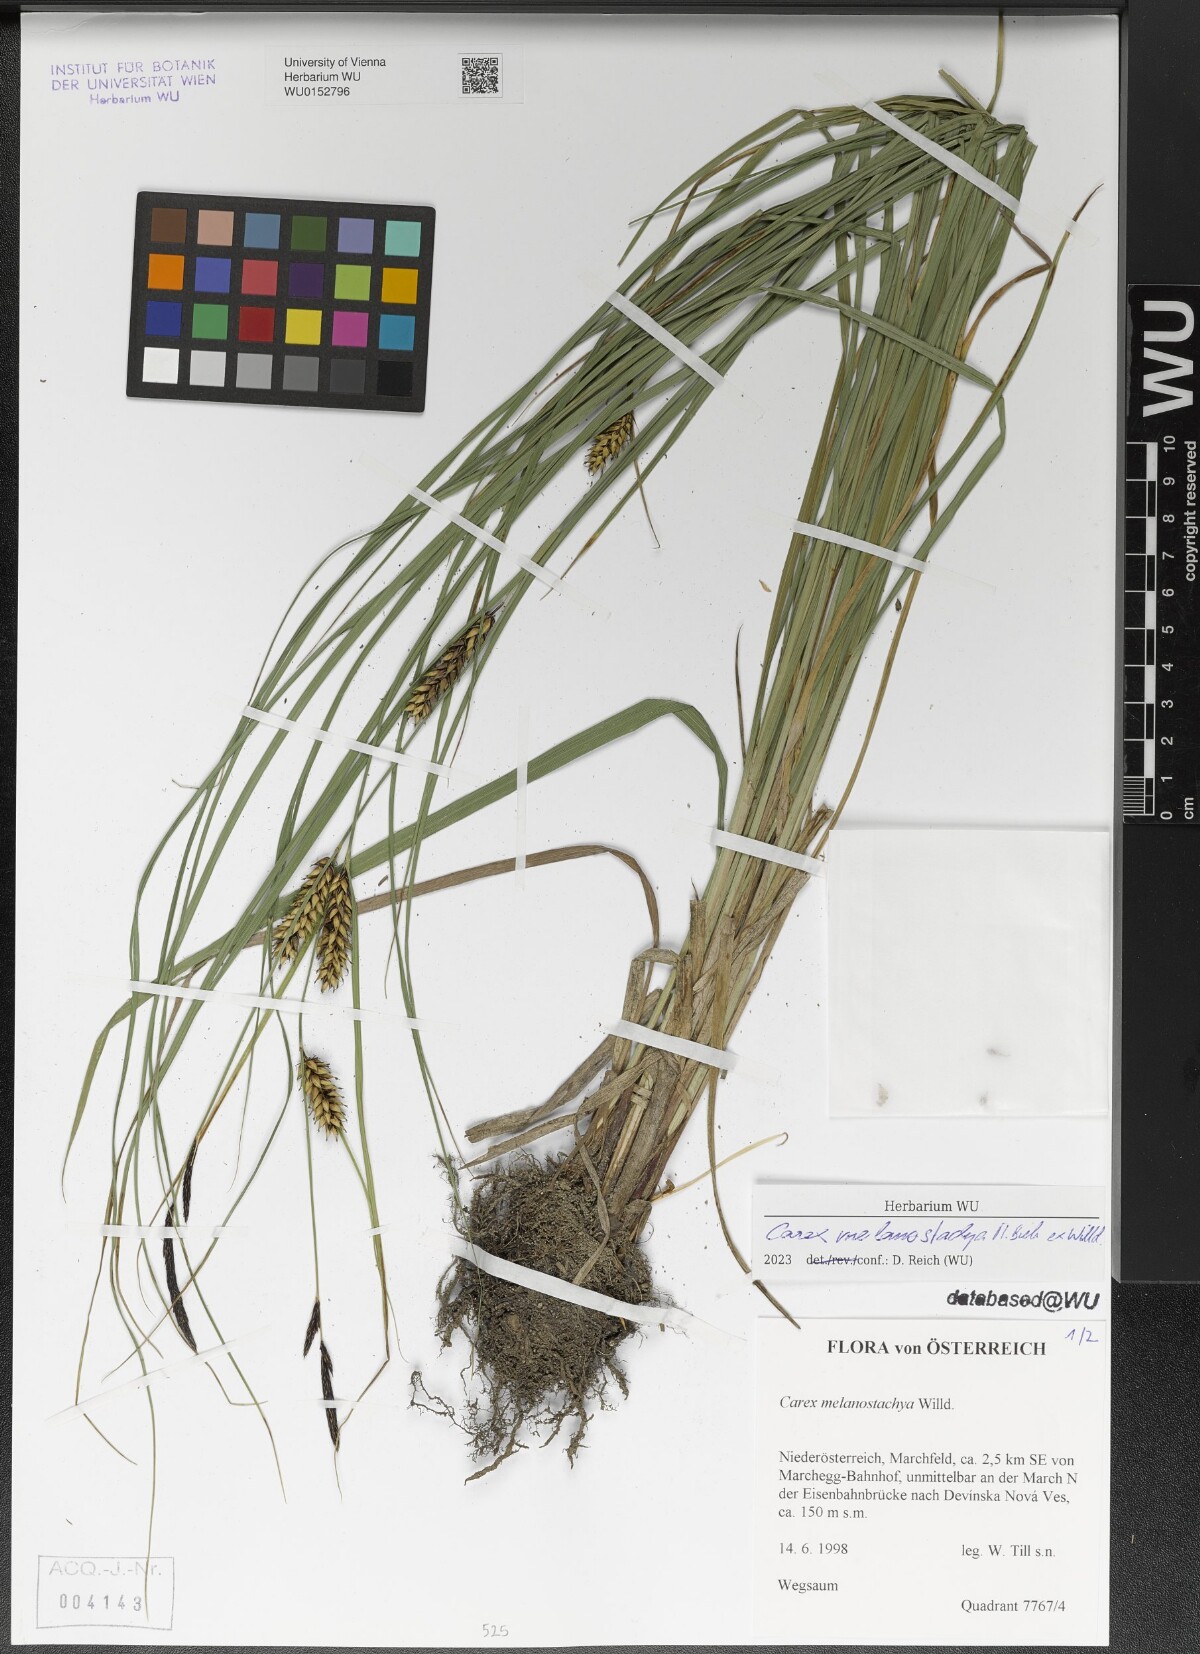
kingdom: Plantae
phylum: Tracheophyta
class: Liliopsida
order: Poales
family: Cyperaceae
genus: Carex
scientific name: Carex melanostachya
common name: Black-spiked sedge
